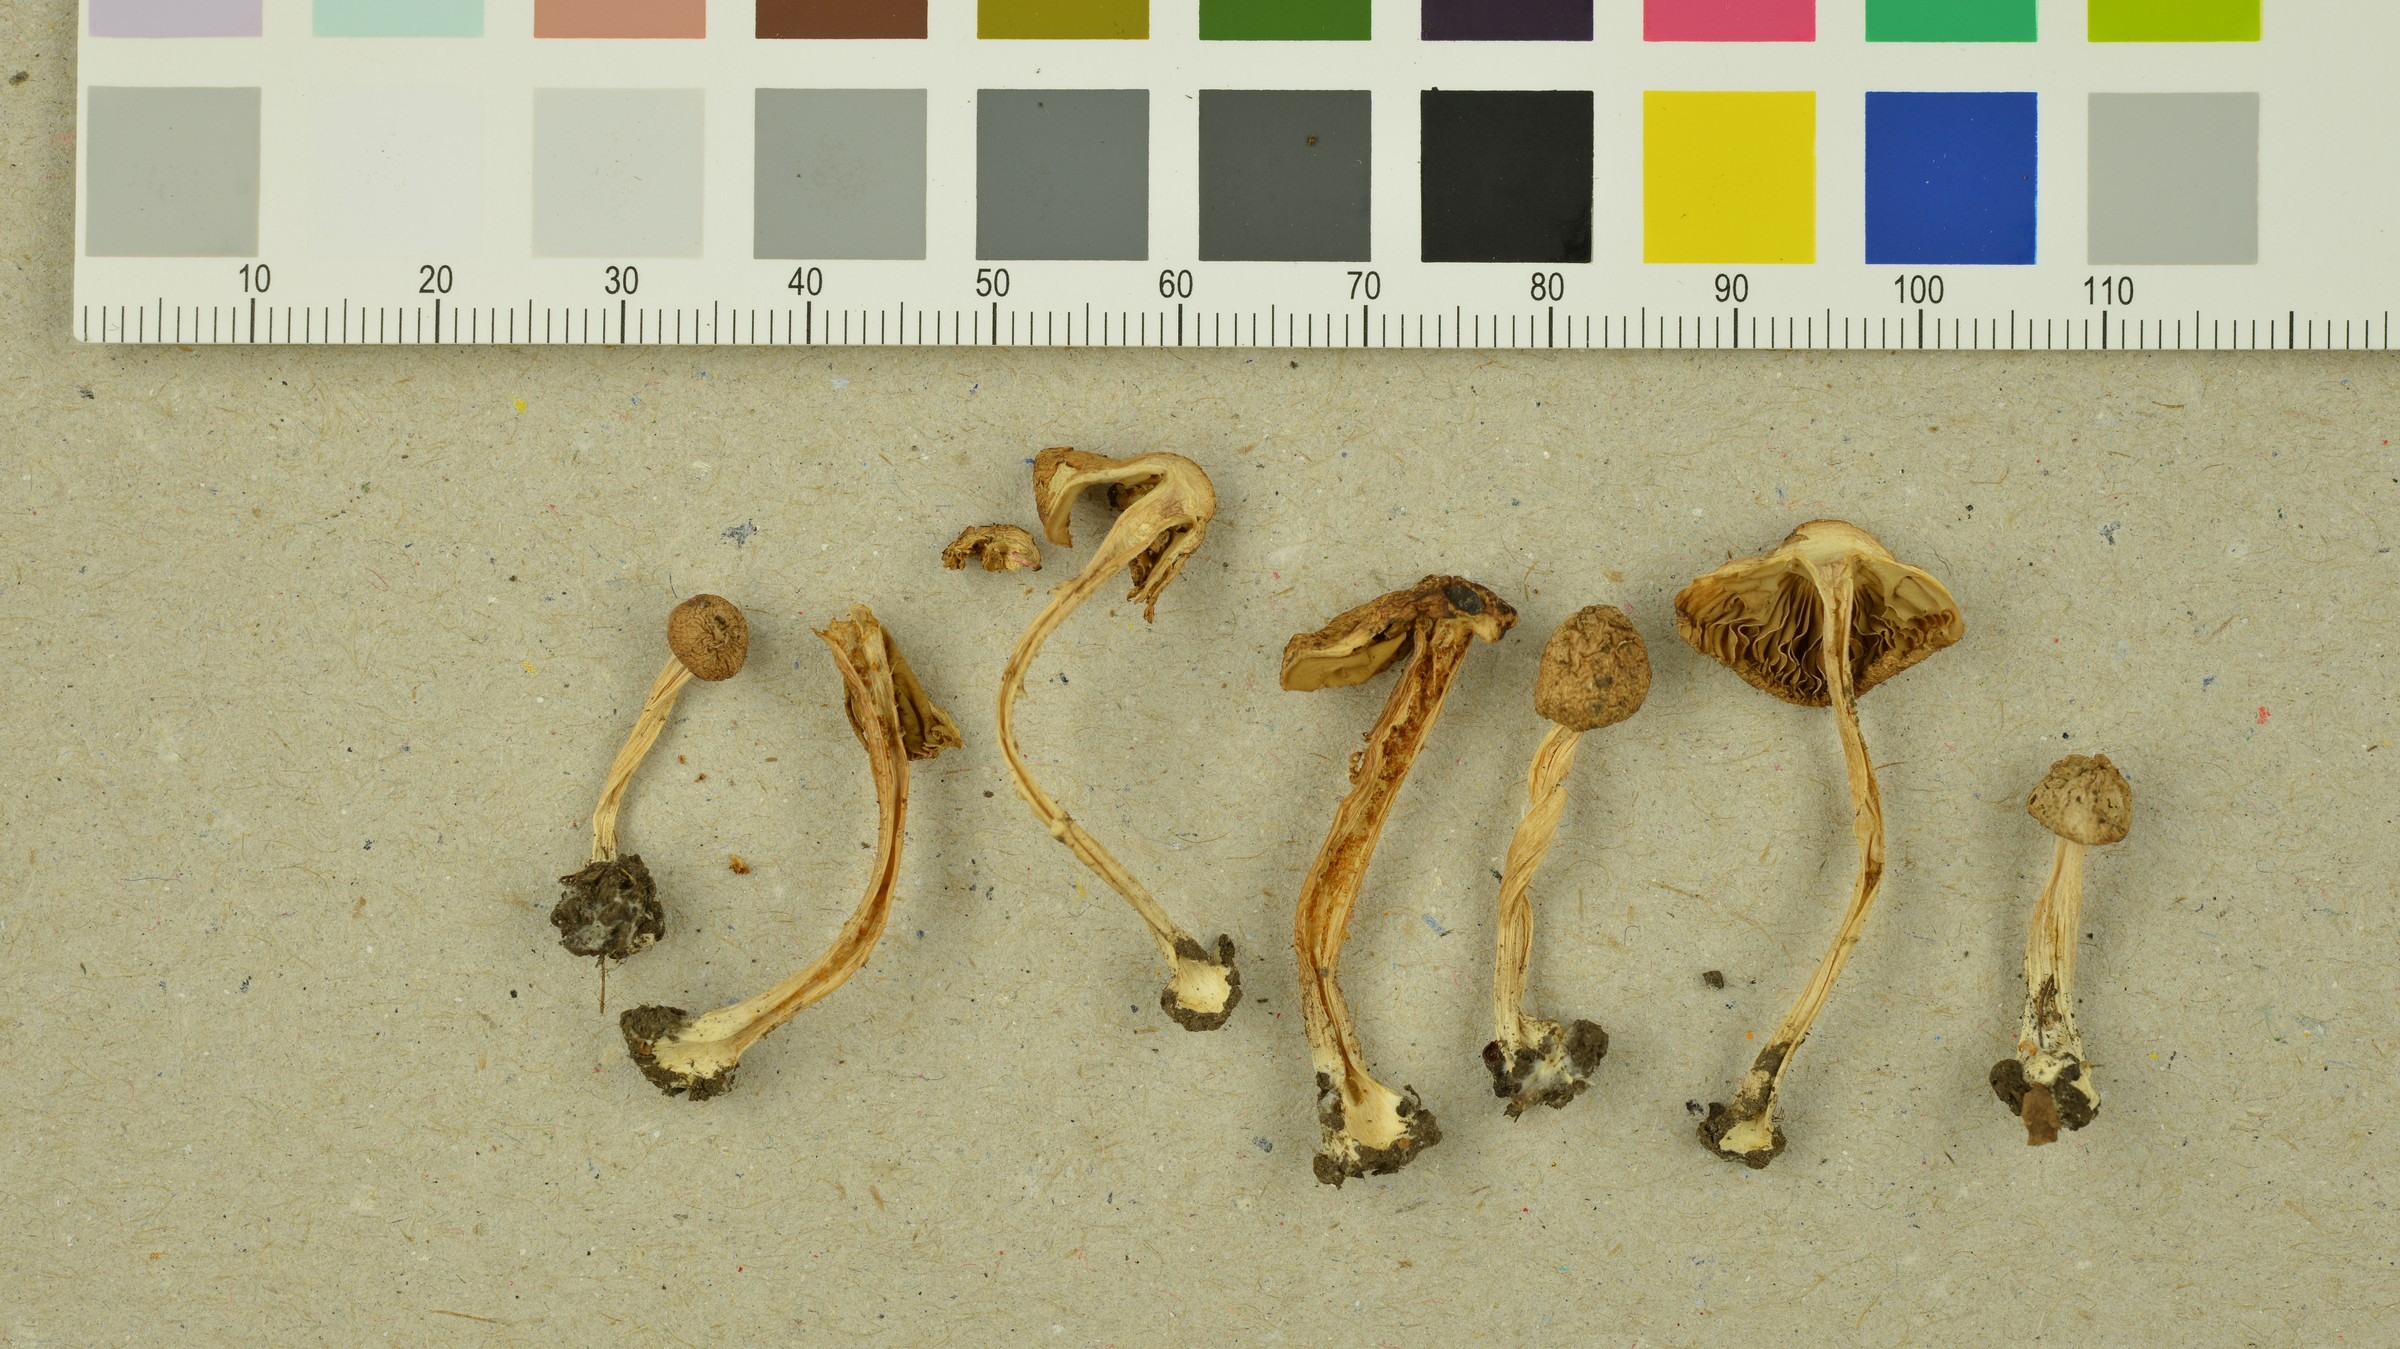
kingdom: Fungi
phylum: Basidiomycota
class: Agaricomycetes
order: Agaricales
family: Inocybaceae
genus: Inocybe
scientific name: Inocybe langei
